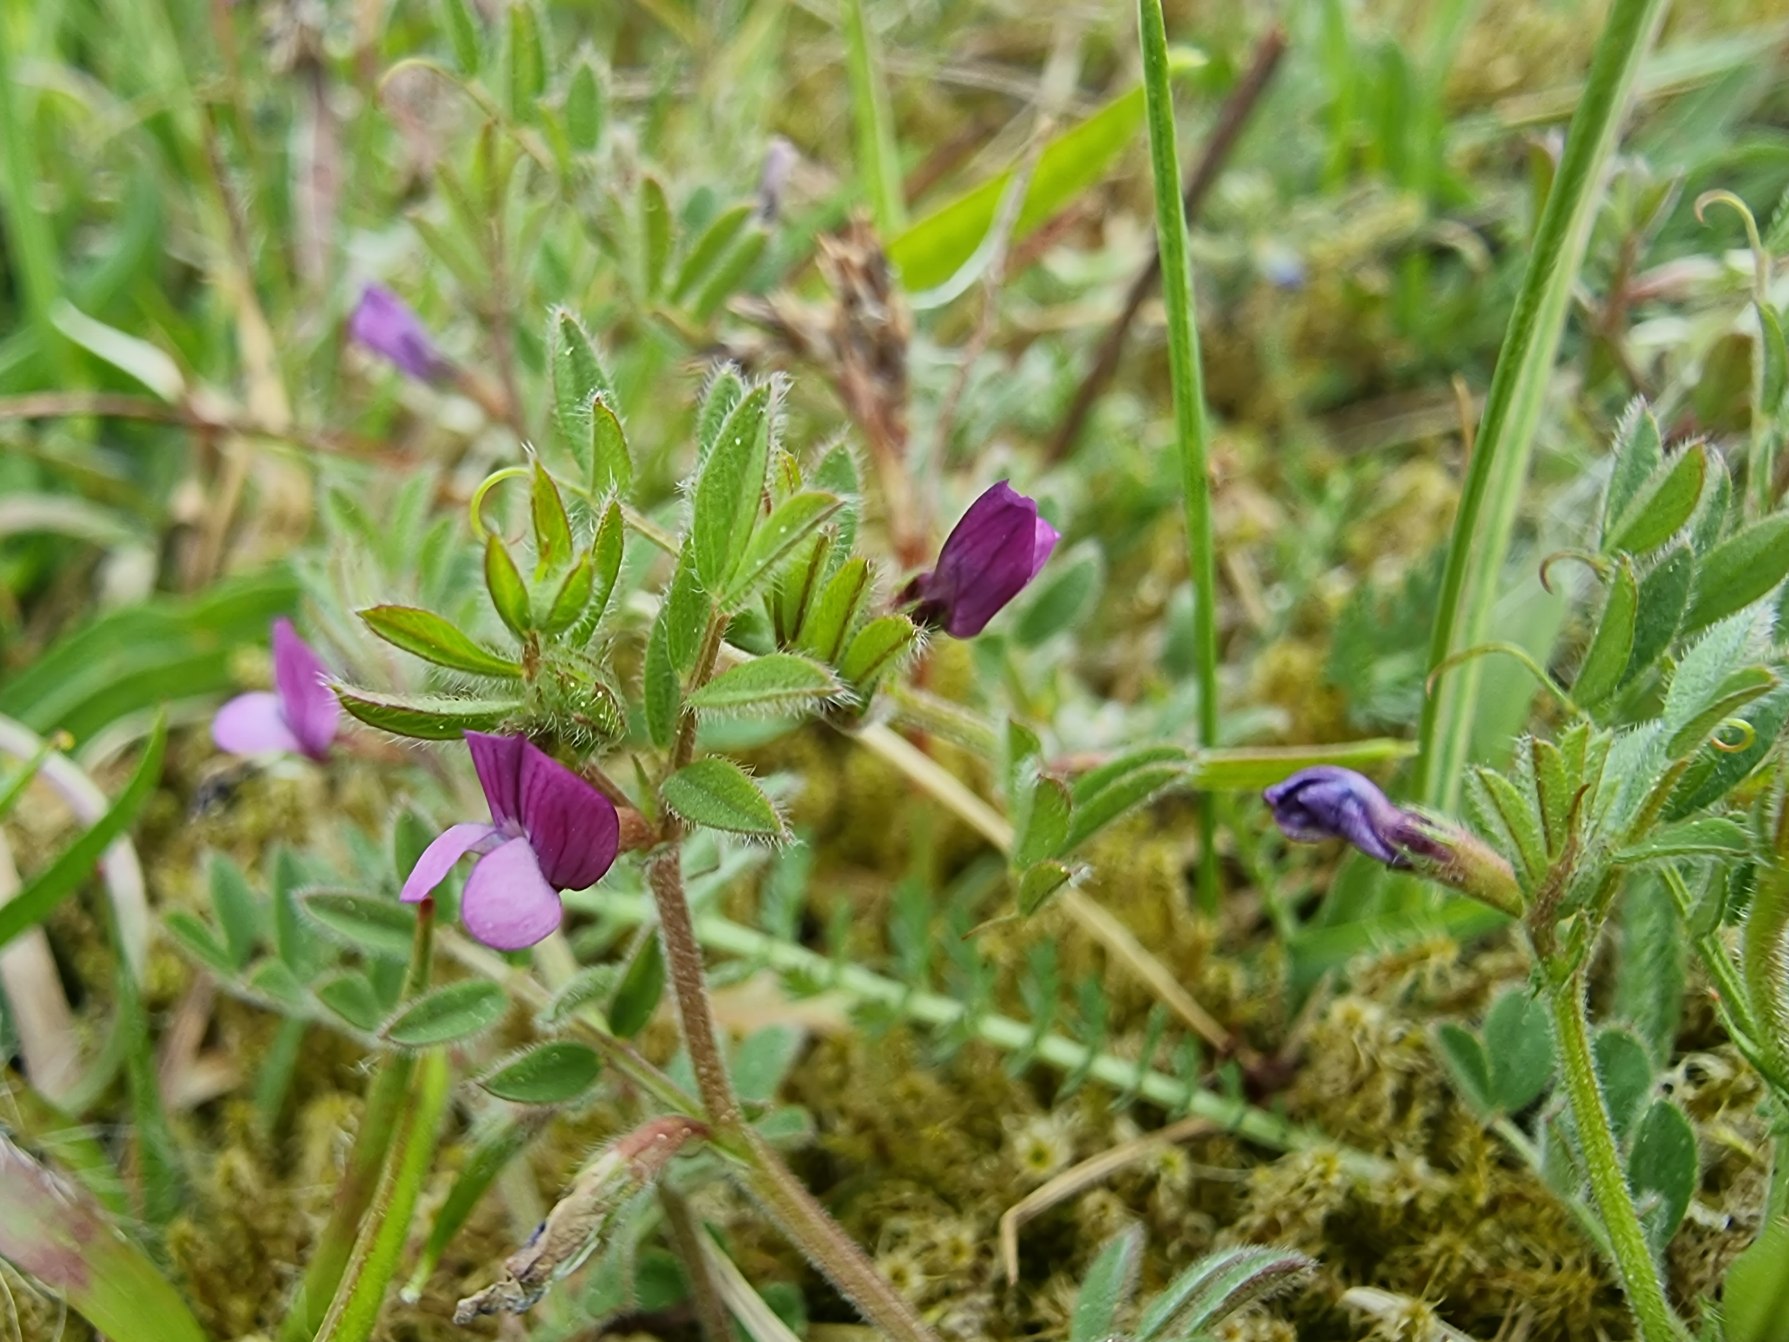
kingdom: Plantae
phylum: Tracheophyta
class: Magnoliopsida
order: Fabales
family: Fabaceae
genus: Vicia
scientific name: Vicia lathyroides
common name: Vår-vikke
